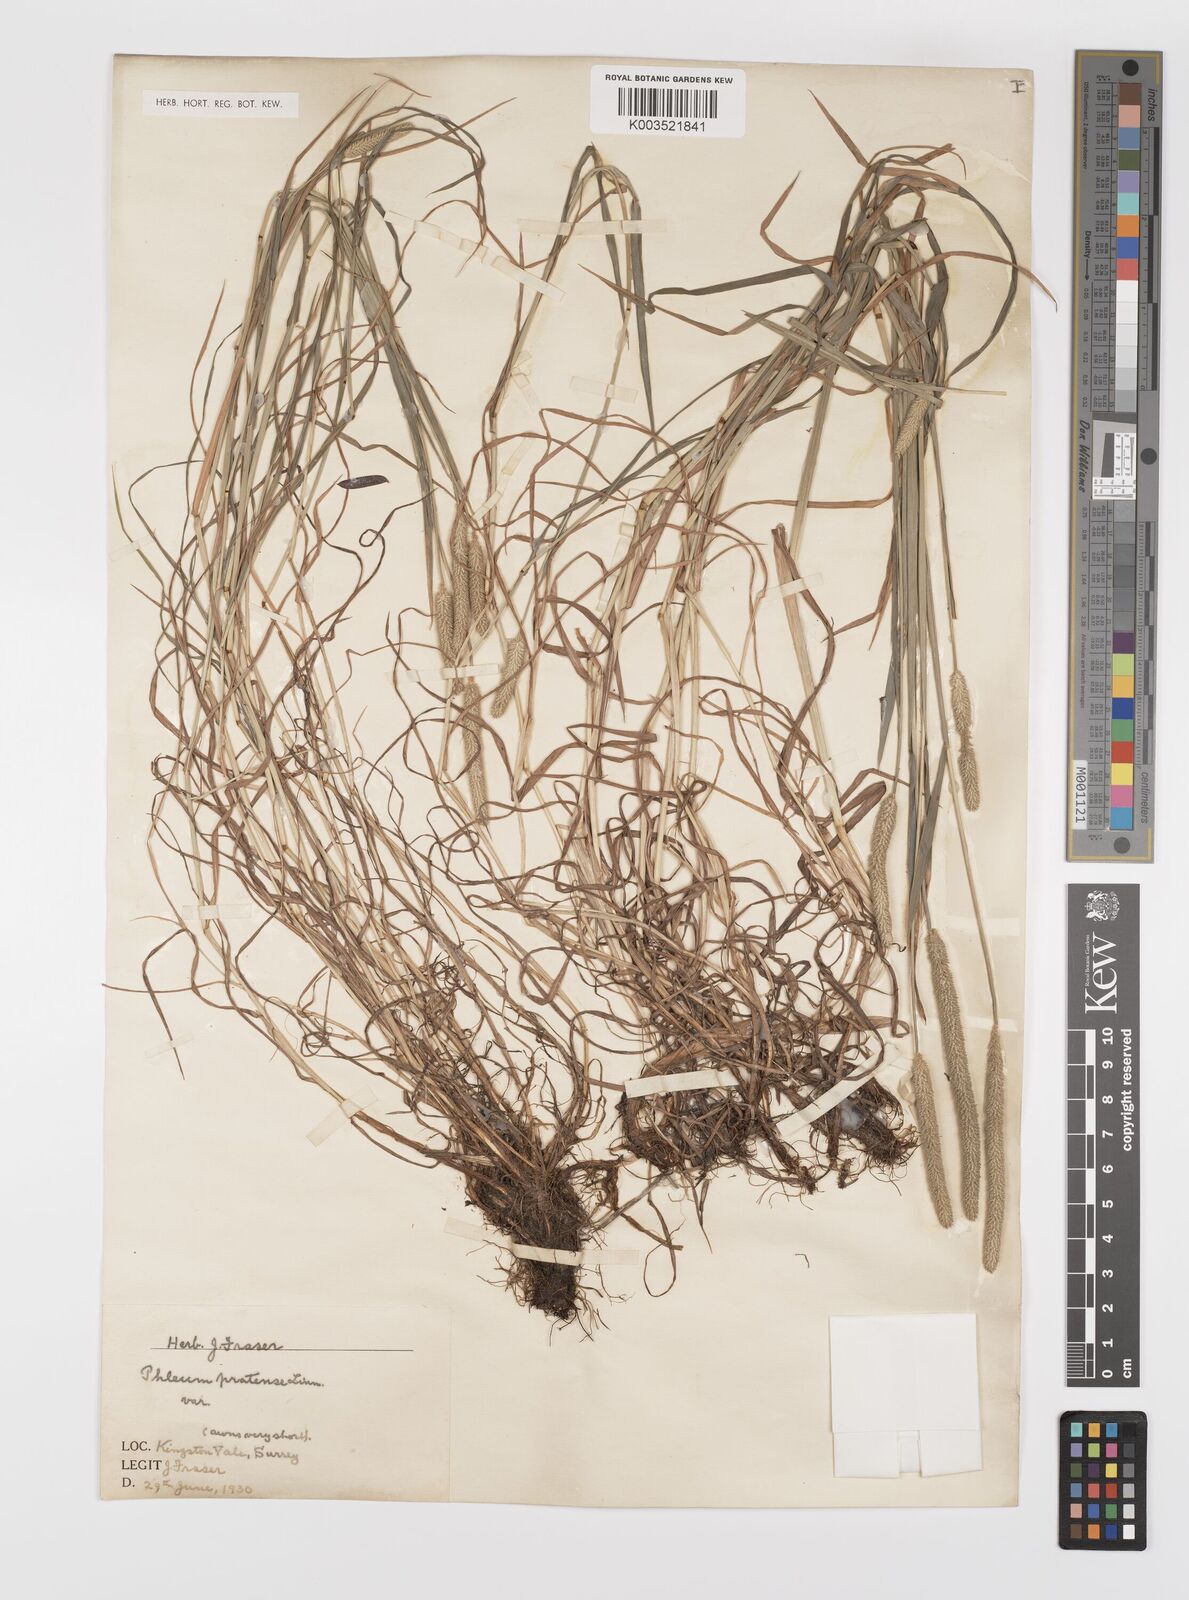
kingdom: Plantae
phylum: Tracheophyta
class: Liliopsida
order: Poales
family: Poaceae
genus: Phleum
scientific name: Phleum bertolonii
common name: Smaller cat's-tail
